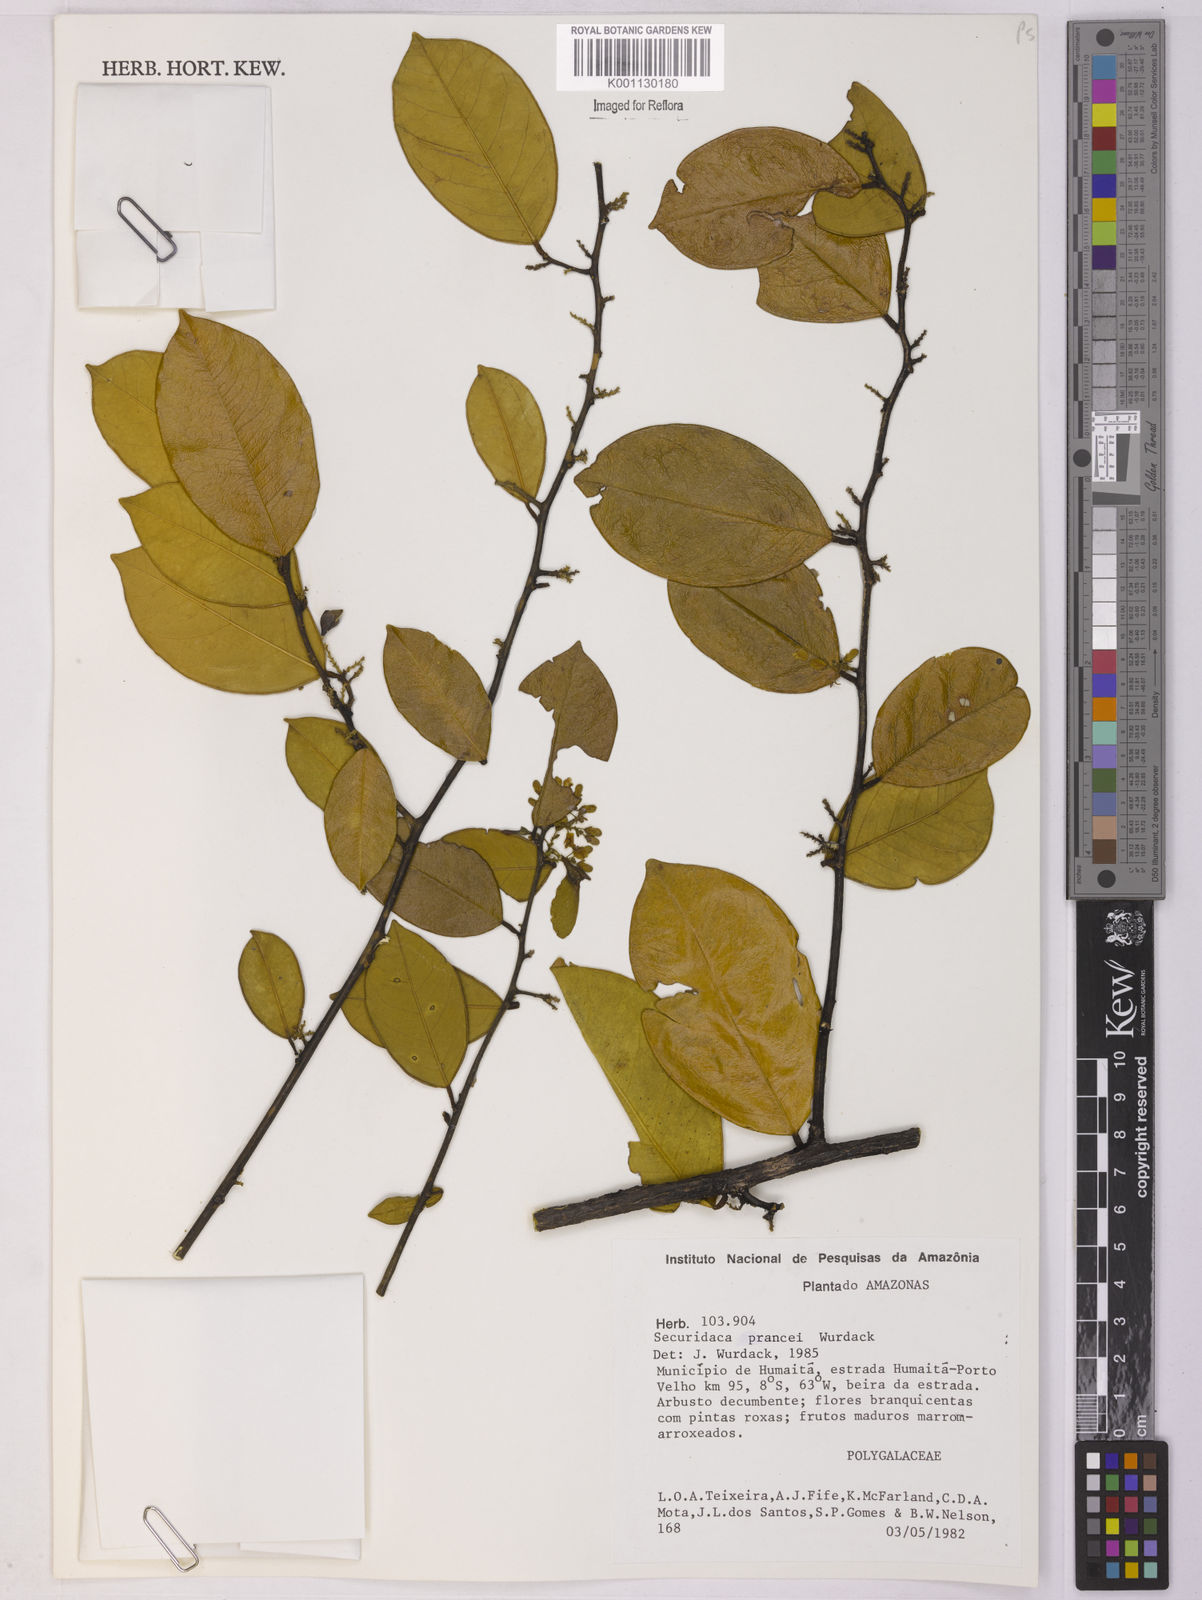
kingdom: Plantae
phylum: Tracheophyta
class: Magnoliopsida
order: Fabales
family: Polygalaceae
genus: Securidaca
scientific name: Securidaca prancei
